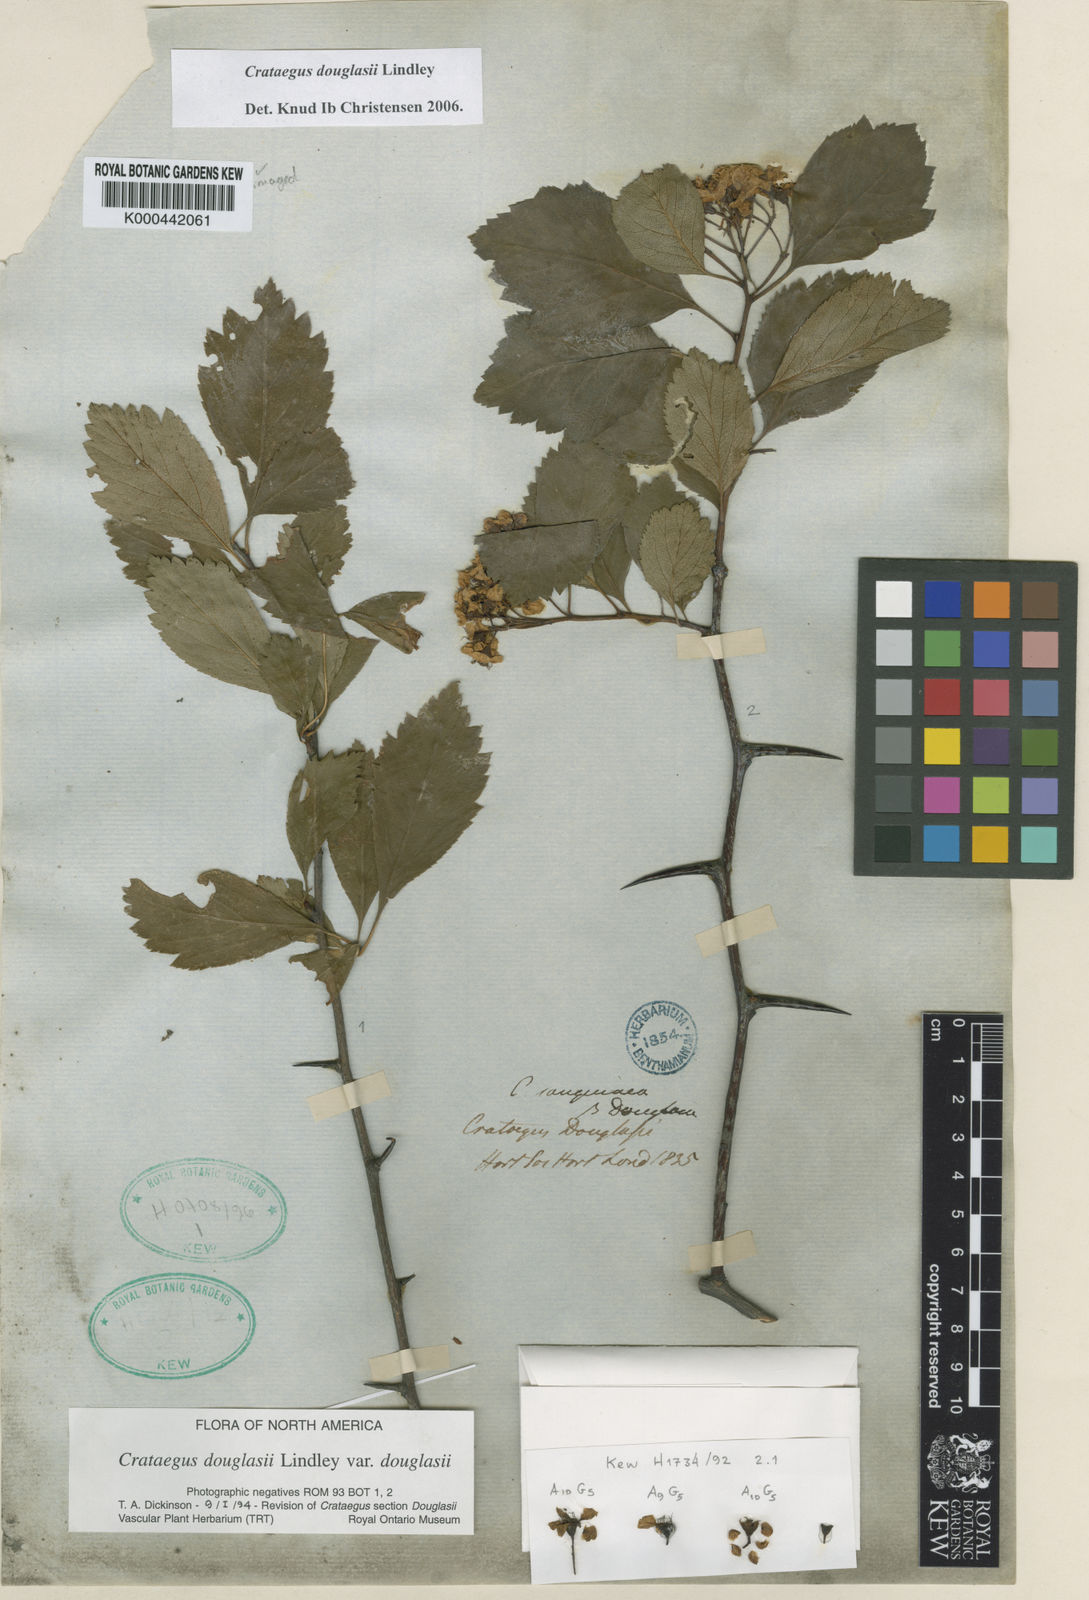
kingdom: Plantae
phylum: Tracheophyta
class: Magnoliopsida
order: Rosales
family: Rosaceae
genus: Crataegus
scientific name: Crataegus douglasii
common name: Black hawthorn
